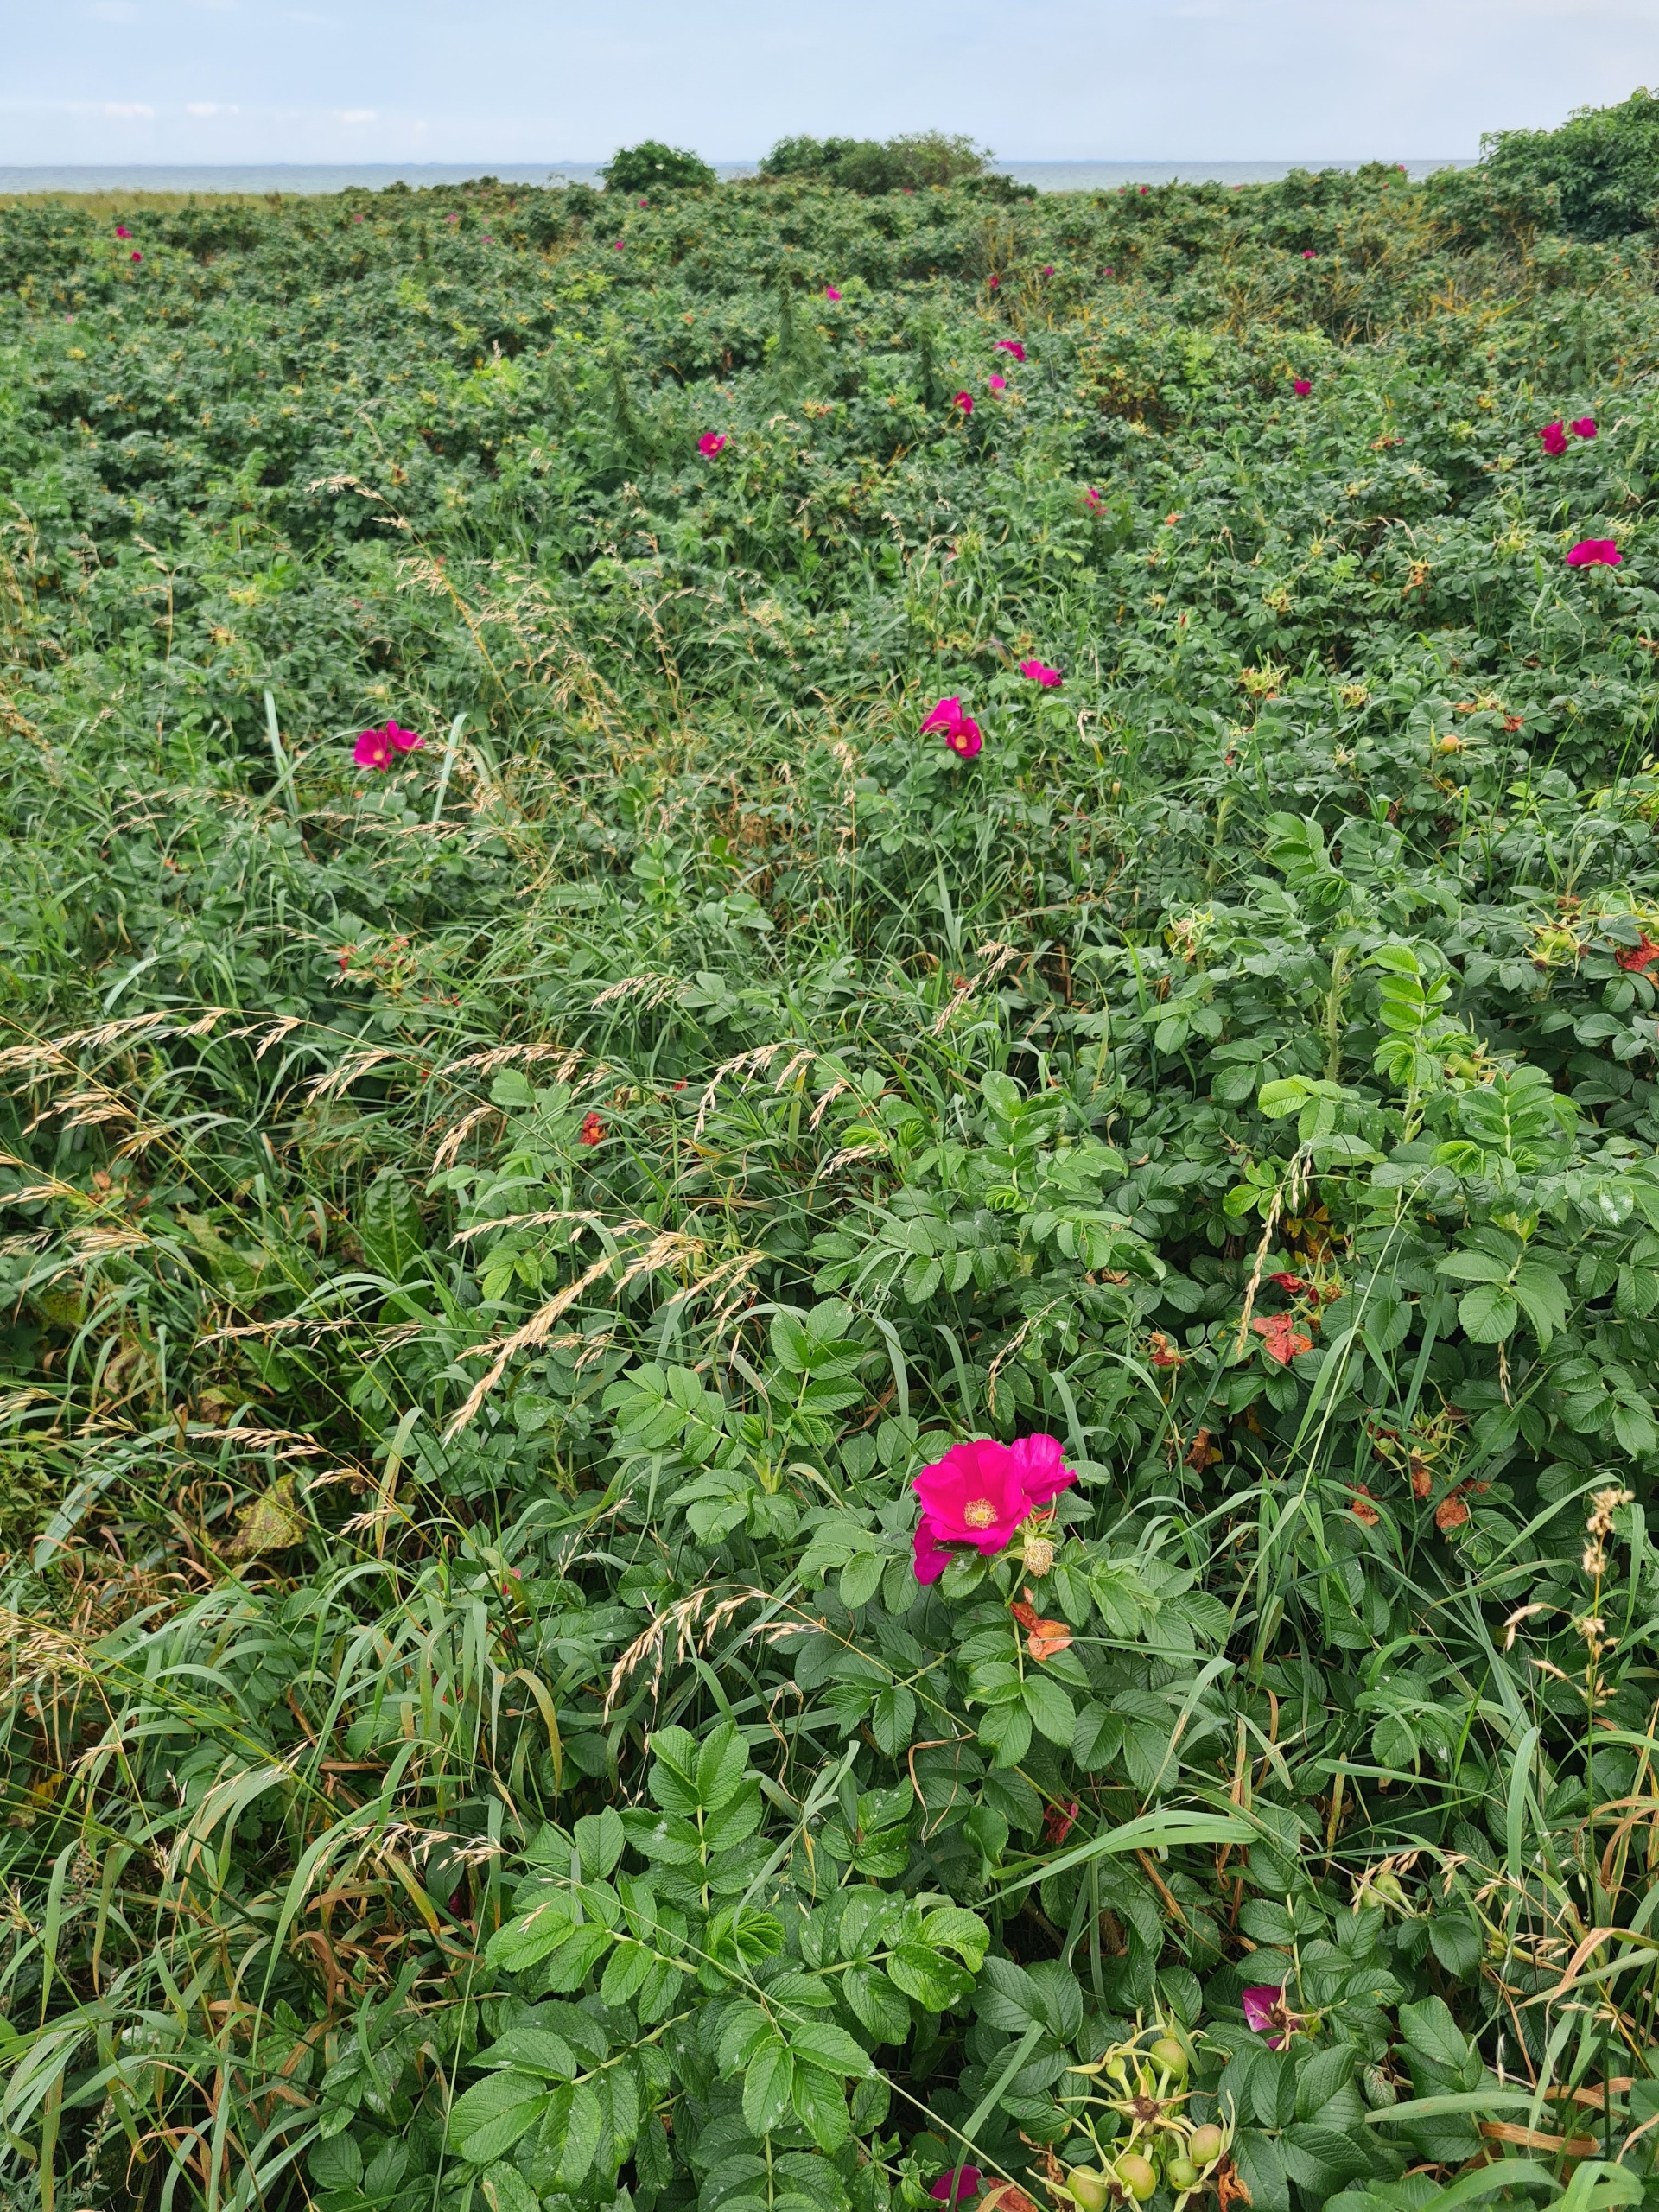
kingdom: Plantae
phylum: Tracheophyta
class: Magnoliopsida
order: Rosales
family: Rosaceae
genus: Rosa
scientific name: Rosa rugosa
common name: Rynket rose
